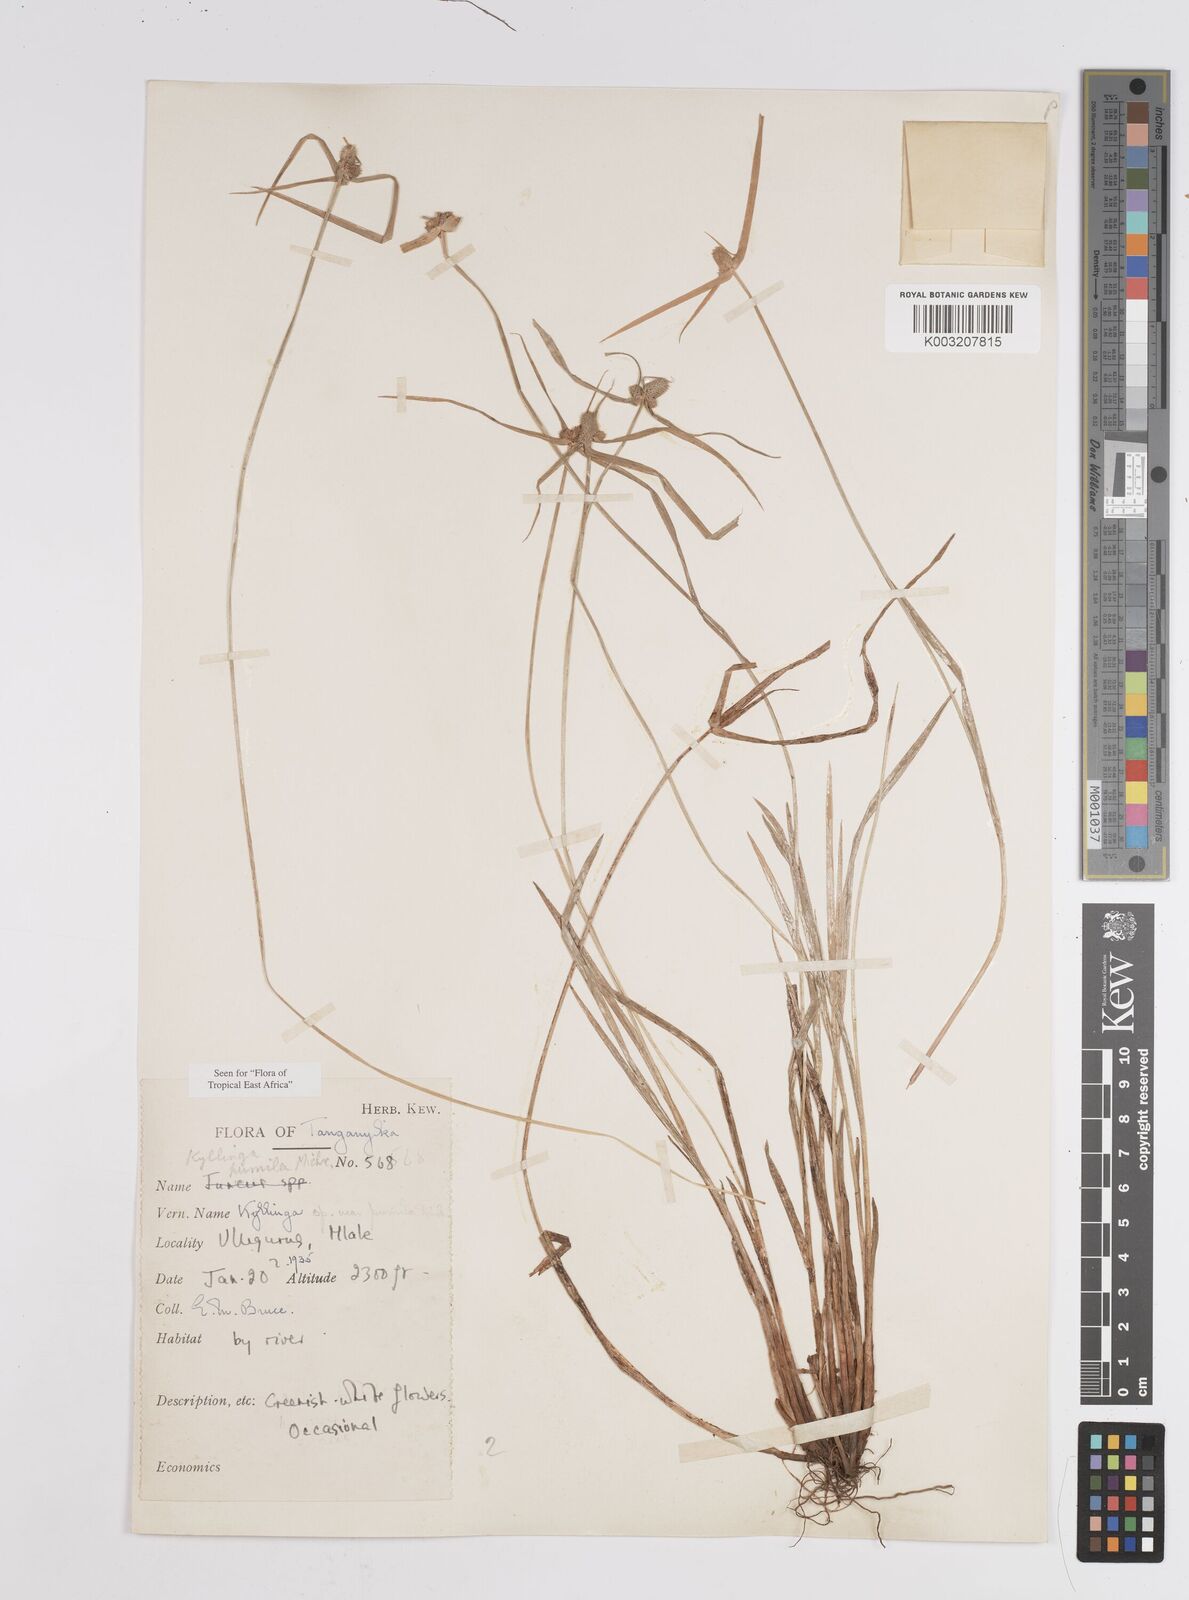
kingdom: Plantae
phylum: Tracheophyta
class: Liliopsida
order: Poales
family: Cyperaceae
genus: Cyperus
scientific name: Cyperus hortensis
